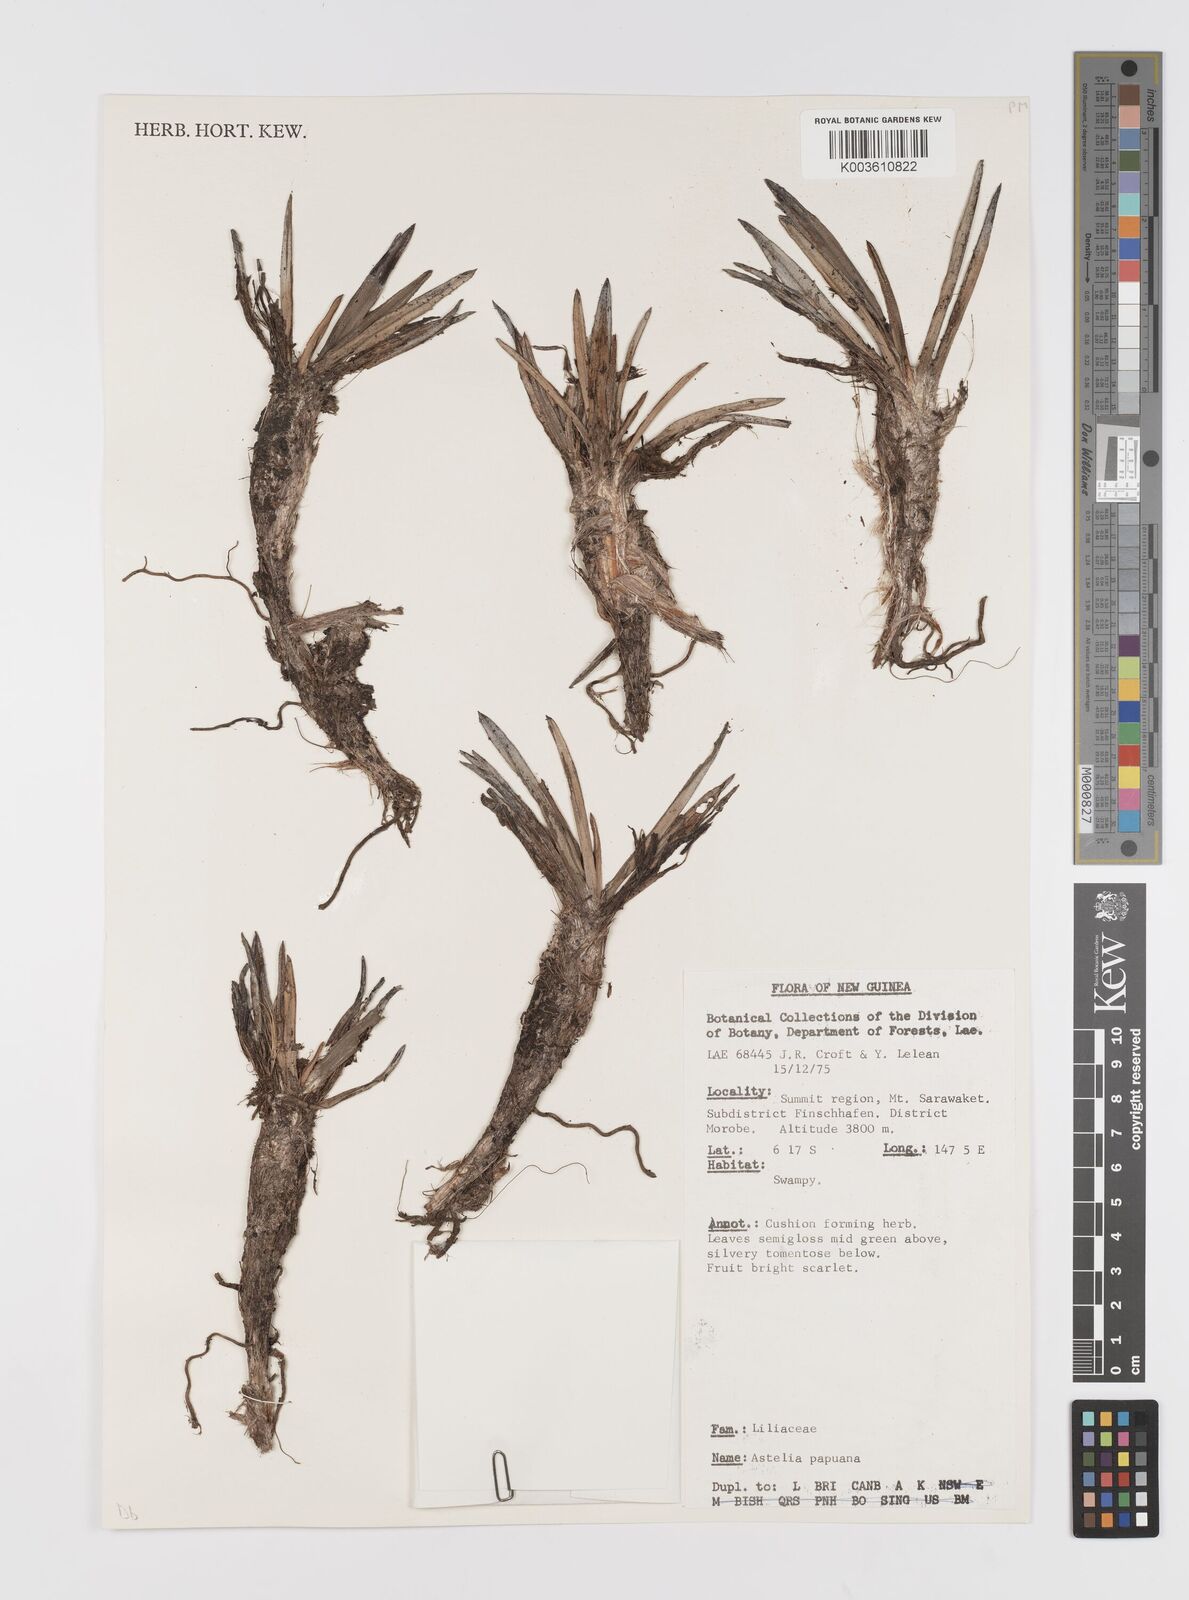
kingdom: Plantae
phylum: Tracheophyta
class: Liliopsida
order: Asparagales
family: Asteliaceae
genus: Astelia
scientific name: Astelia papuana
